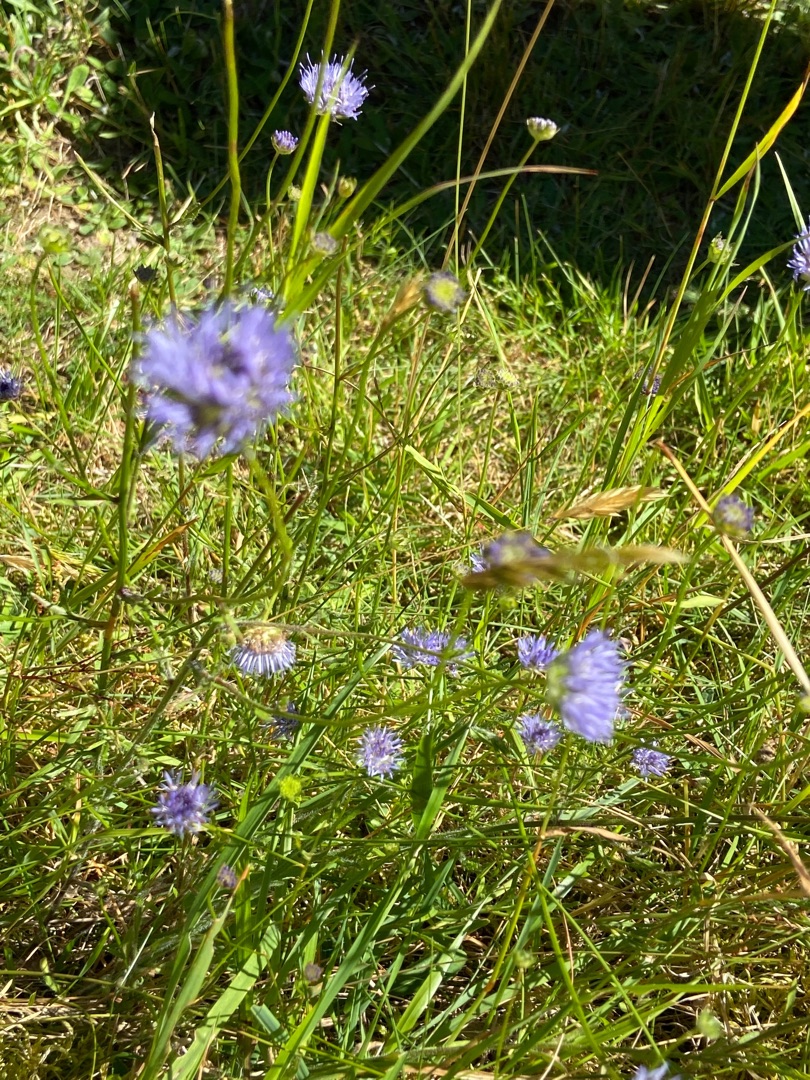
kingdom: Plantae
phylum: Tracheophyta
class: Magnoliopsida
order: Asterales
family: Campanulaceae
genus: Jasione
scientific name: Jasione montana
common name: Blåmunke
